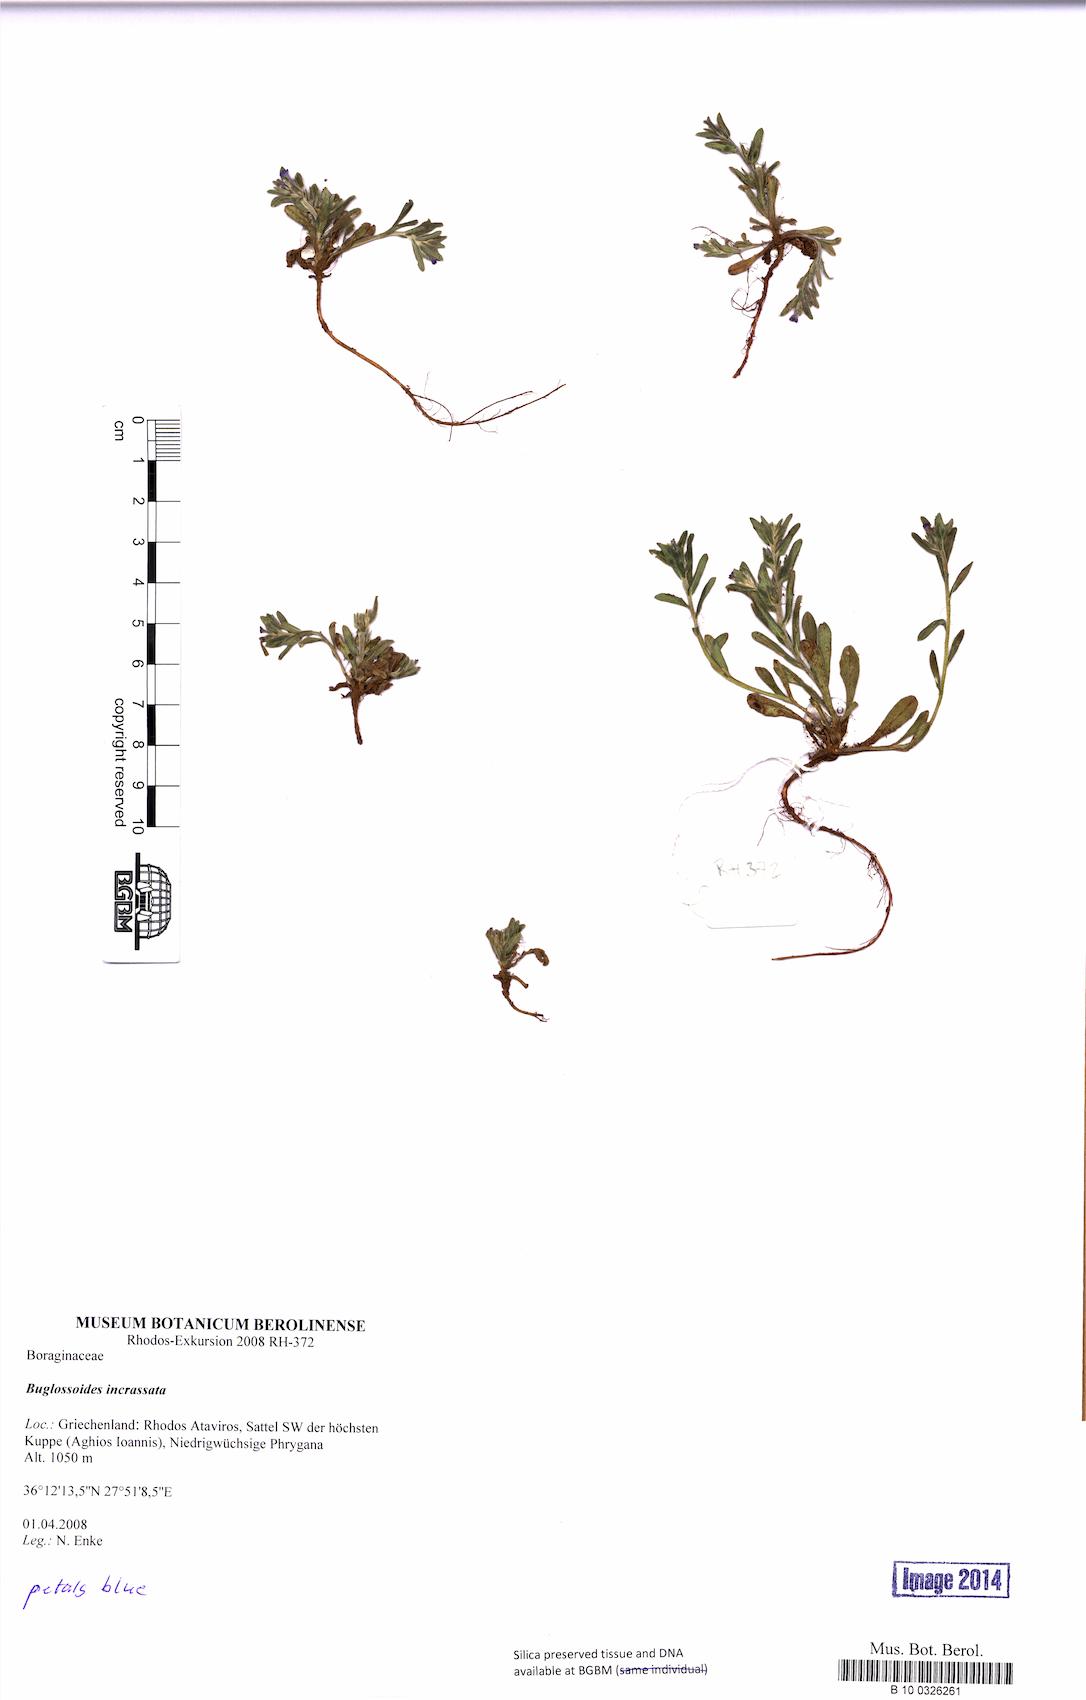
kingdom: Plantae
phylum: Tracheophyta
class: Magnoliopsida
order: Boraginales
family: Boraginaceae
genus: Buglossoides
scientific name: Buglossoides incrassata
